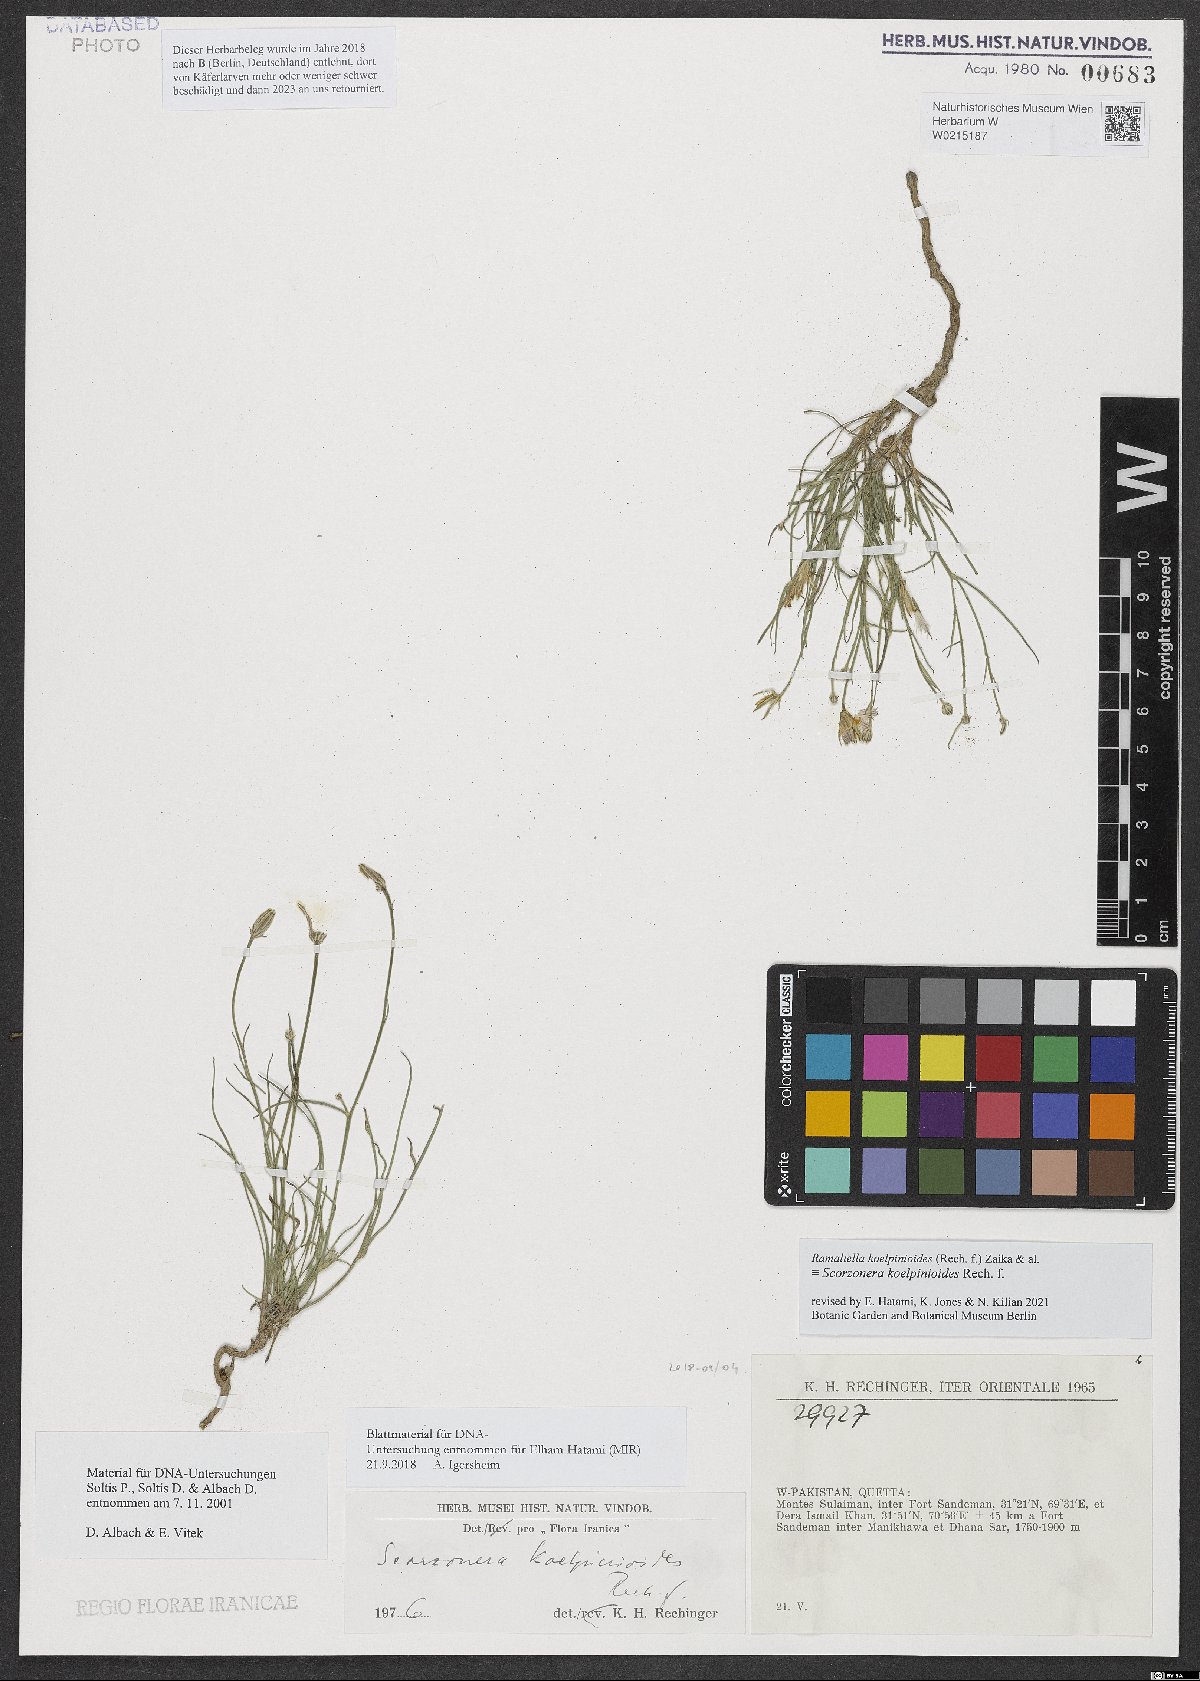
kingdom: Plantae
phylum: Tracheophyta
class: Magnoliopsida
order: Asterales
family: Asteraceae
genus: Ramaliella
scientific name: Ramaliella koelpinioides
